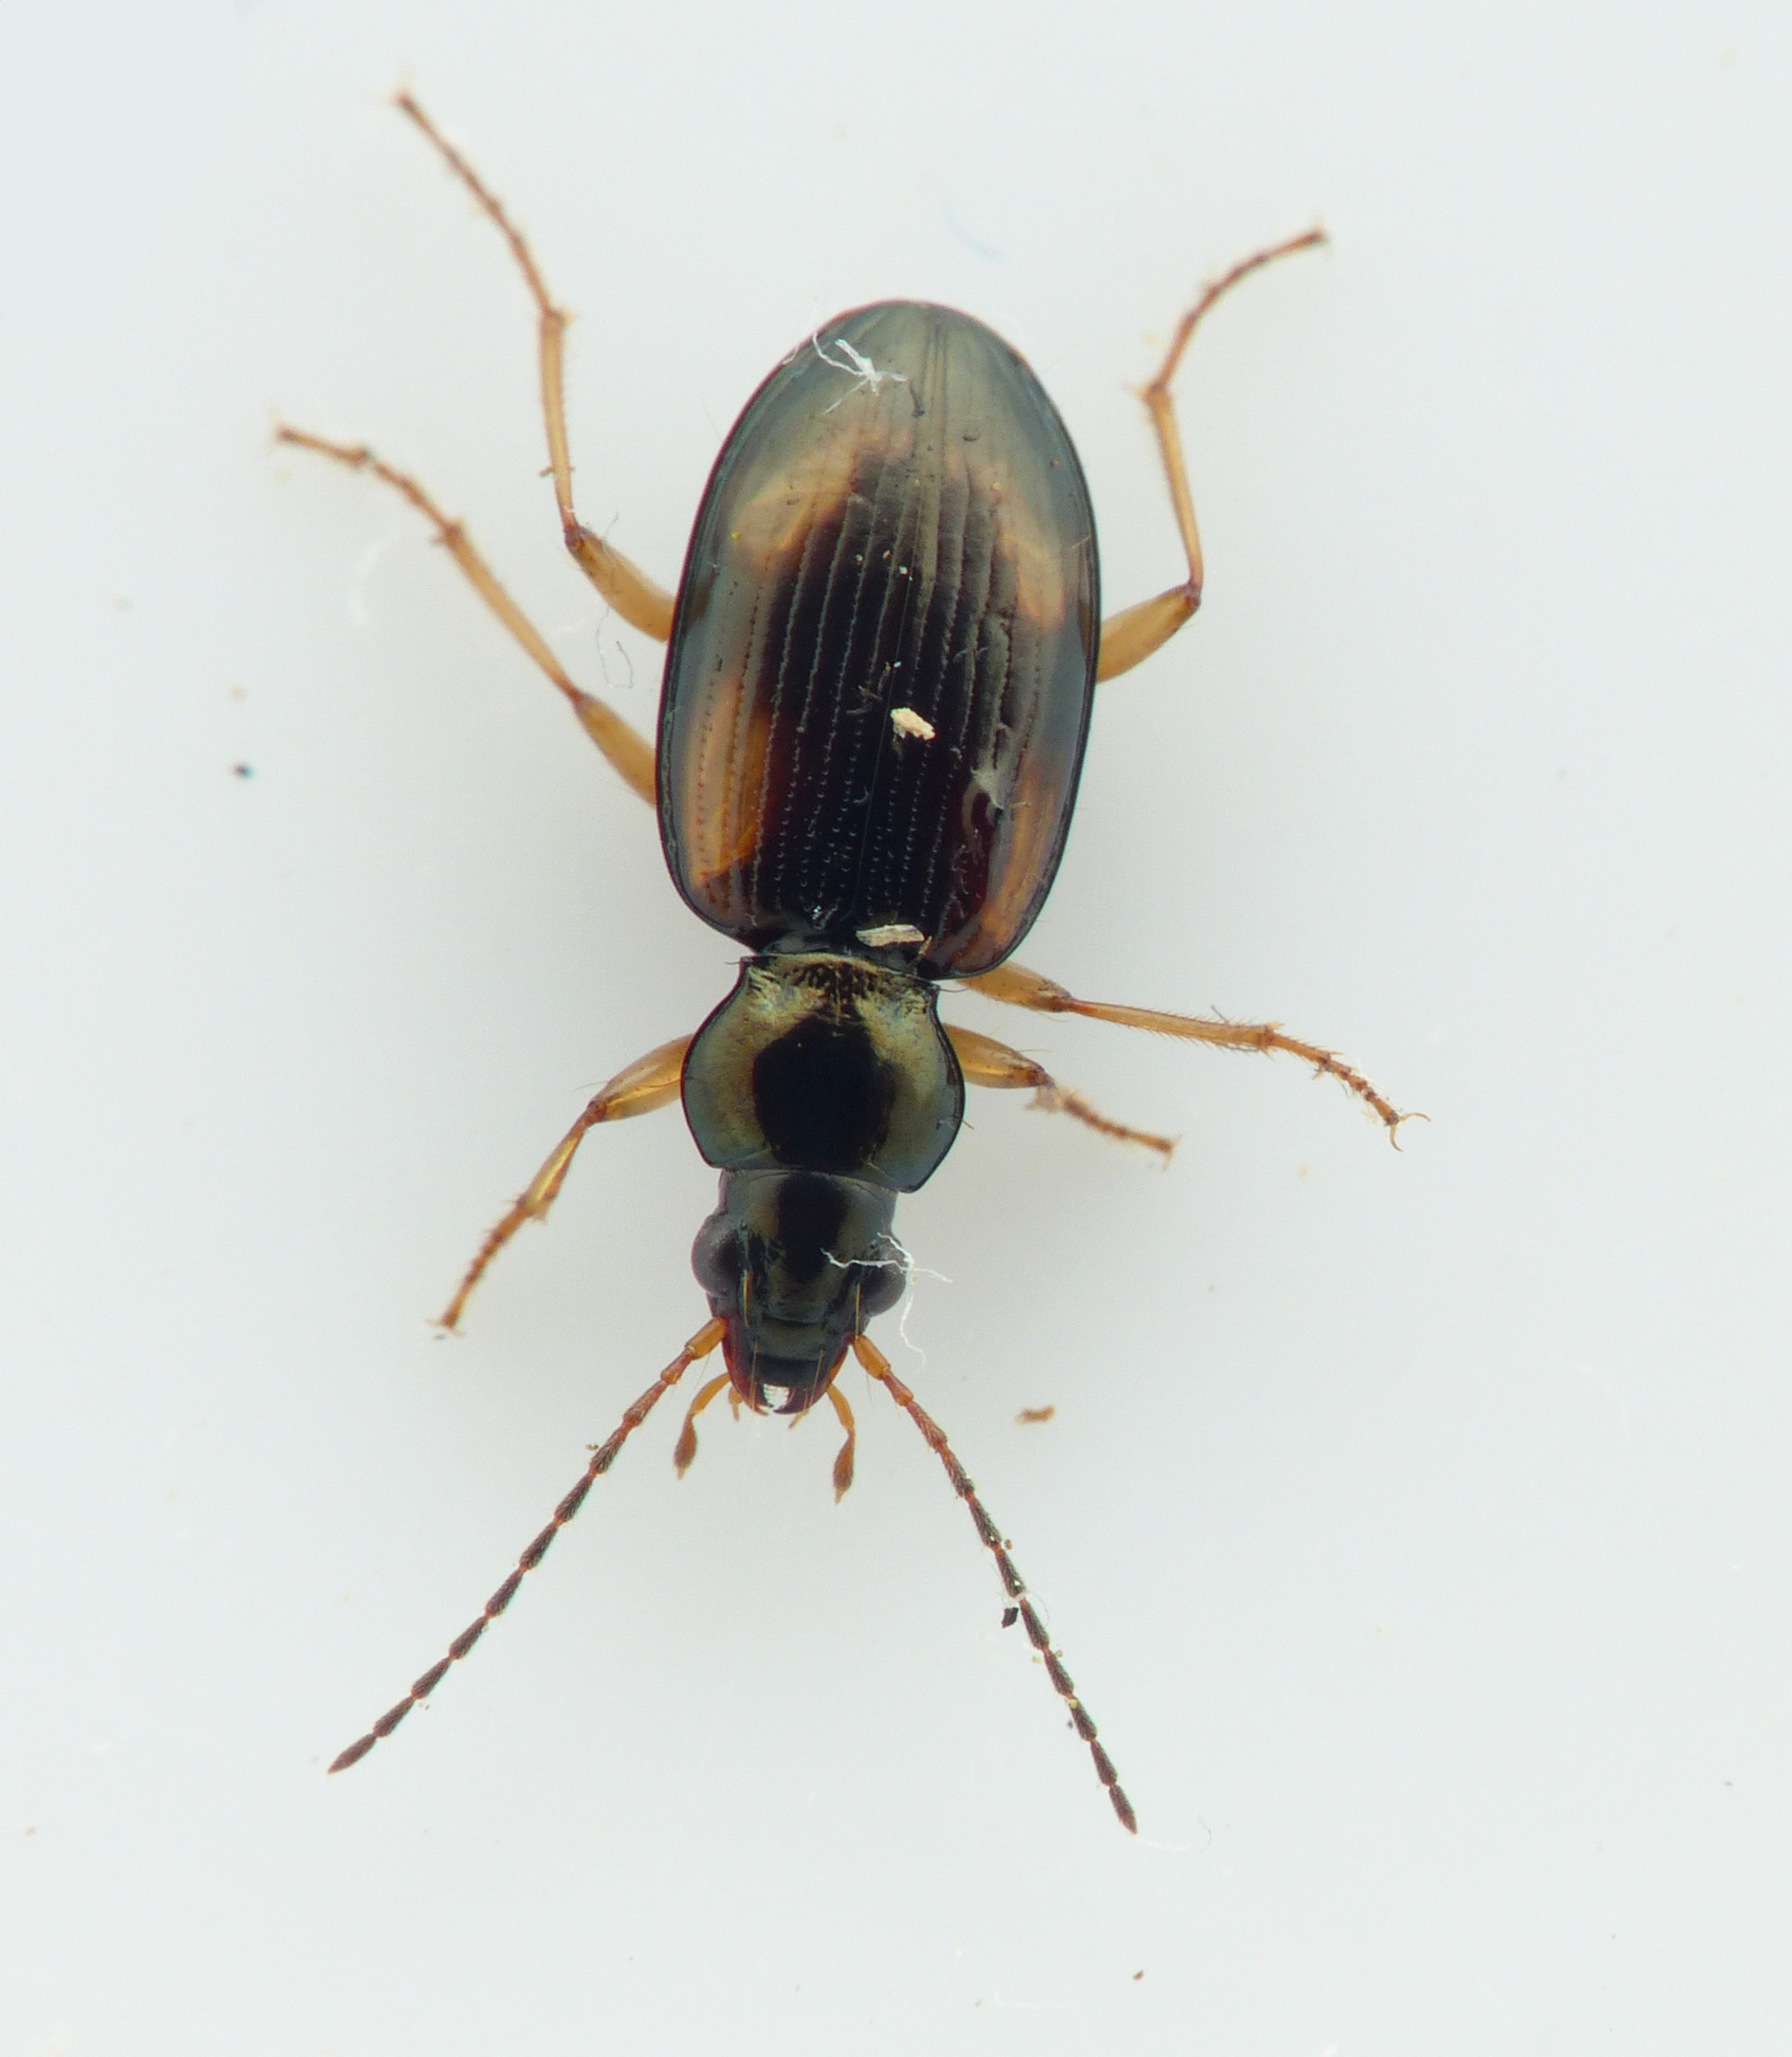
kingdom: Animalia
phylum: Arthropoda
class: Insecta
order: Coleoptera
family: Carabidae
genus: Bembidion
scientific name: Bembidion tetracolum
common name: Stor glansløber
